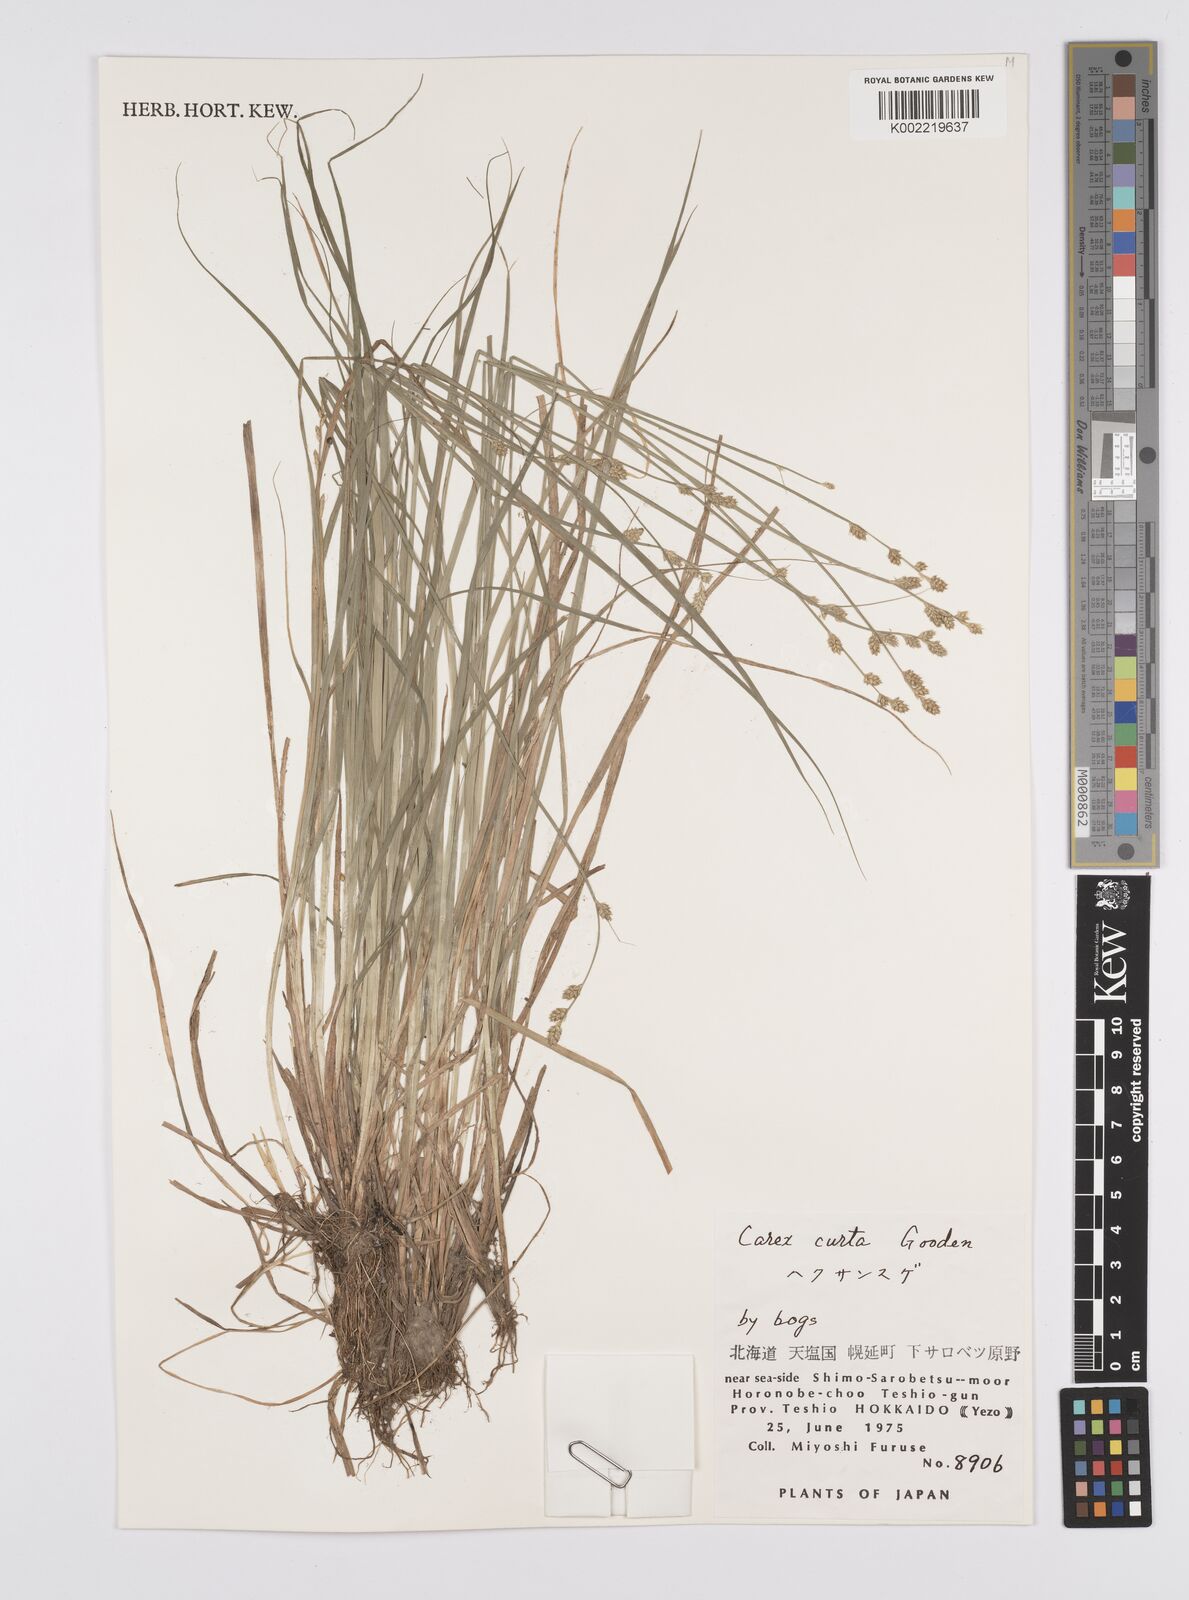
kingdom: Plantae
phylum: Tracheophyta
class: Liliopsida
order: Poales
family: Cyperaceae
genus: Carex
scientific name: Carex canescens
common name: White sedge
